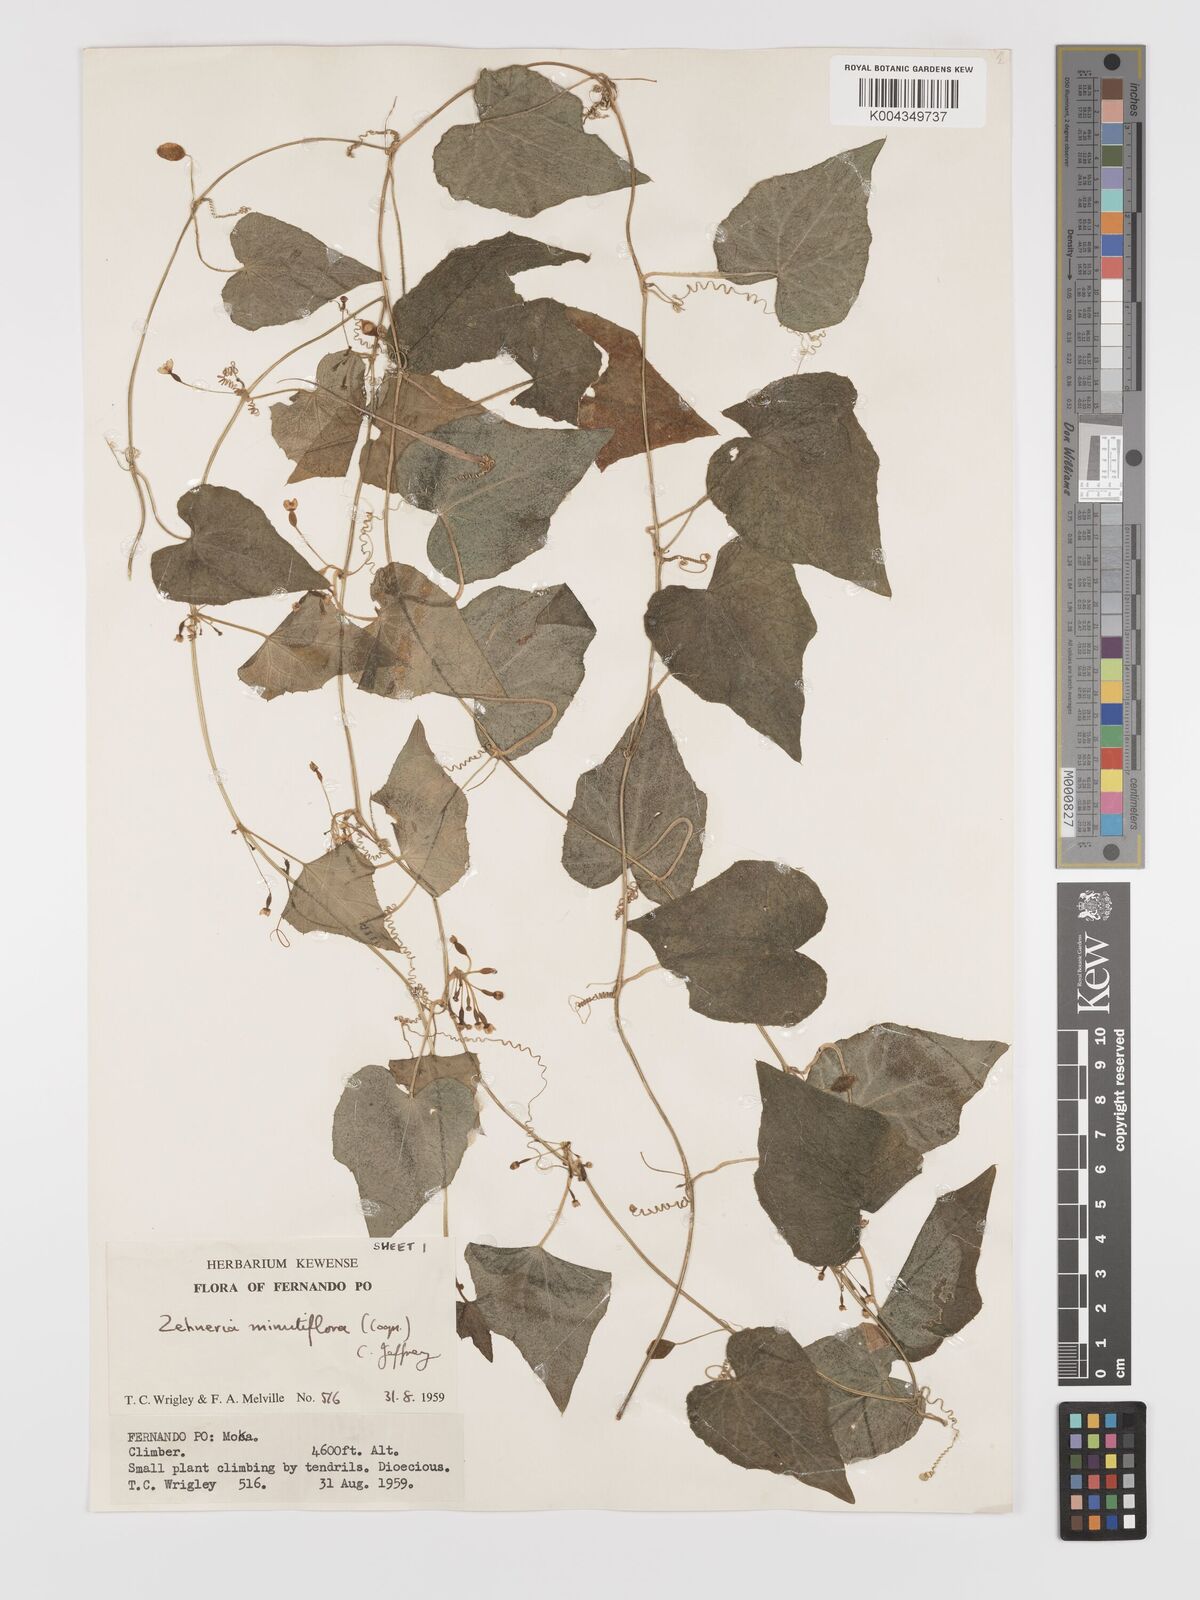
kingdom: Plantae
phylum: Tracheophyta
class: Magnoliopsida
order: Cucurbitales
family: Cucurbitaceae
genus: Zehneria
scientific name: Zehneria minutiflora
